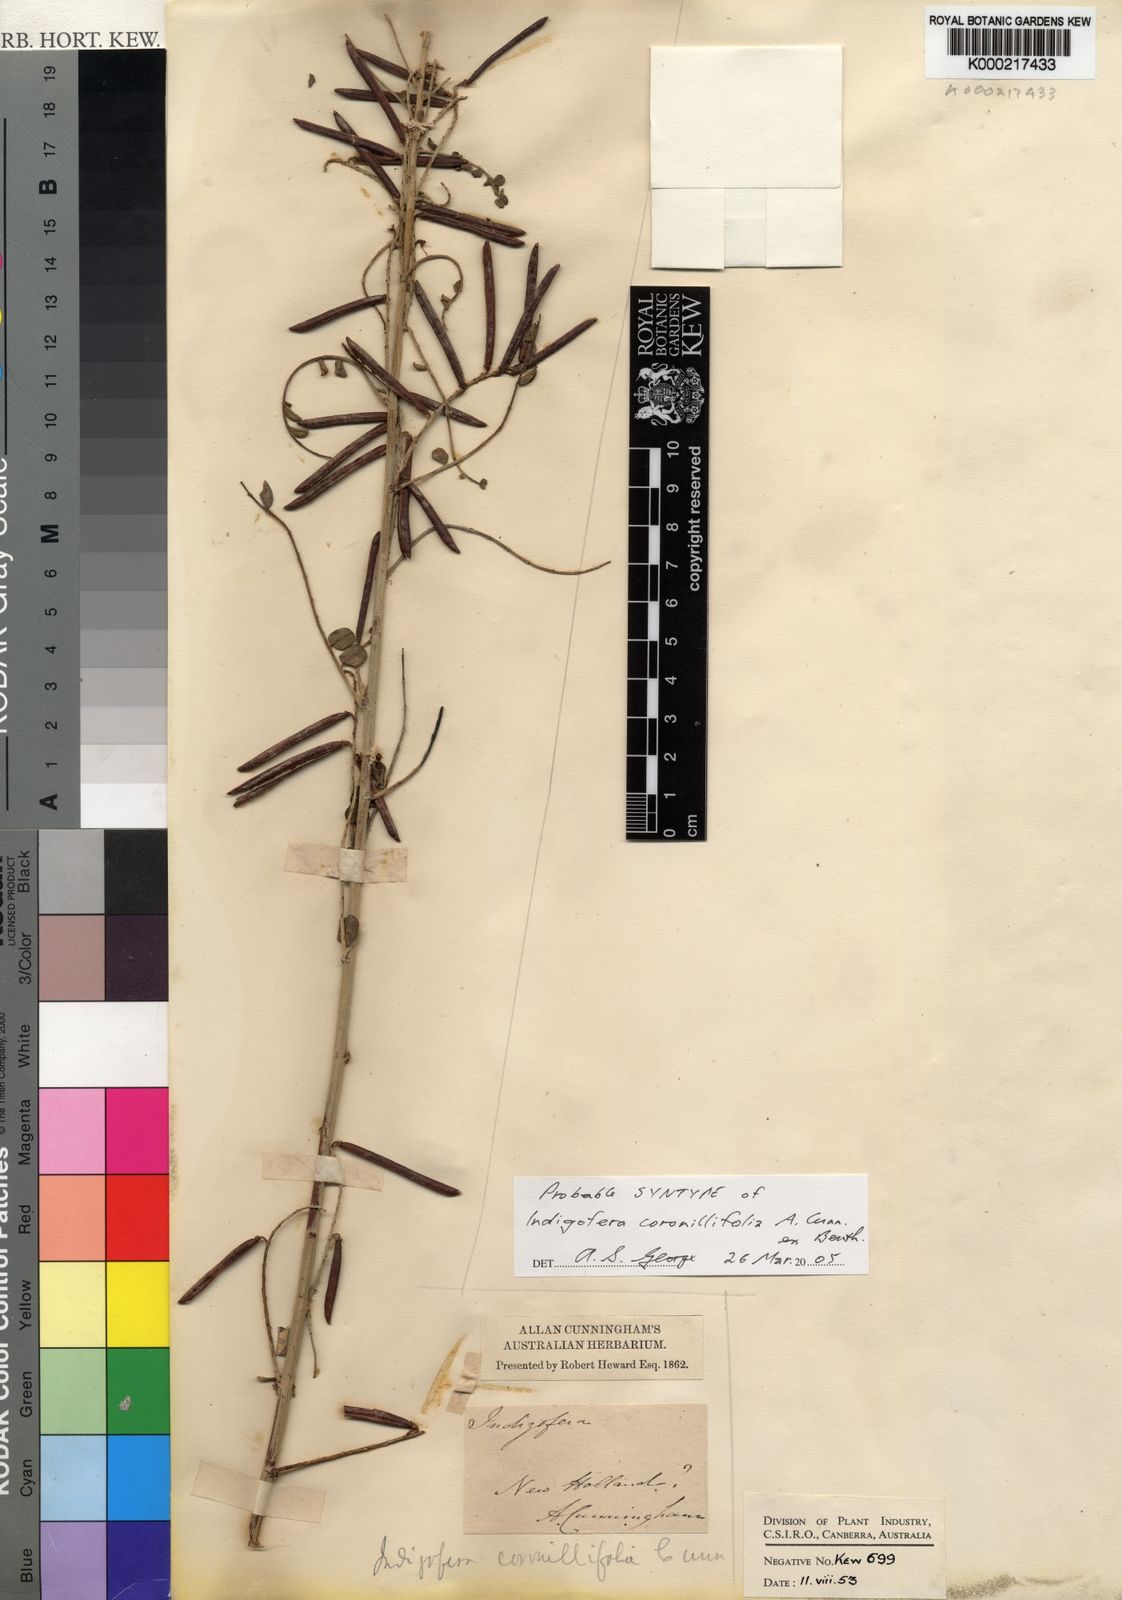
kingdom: Plantae
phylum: Tracheophyta
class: Magnoliopsida
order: Fabales
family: Fabaceae
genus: Indigofera
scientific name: Indigofera coronillifolia
